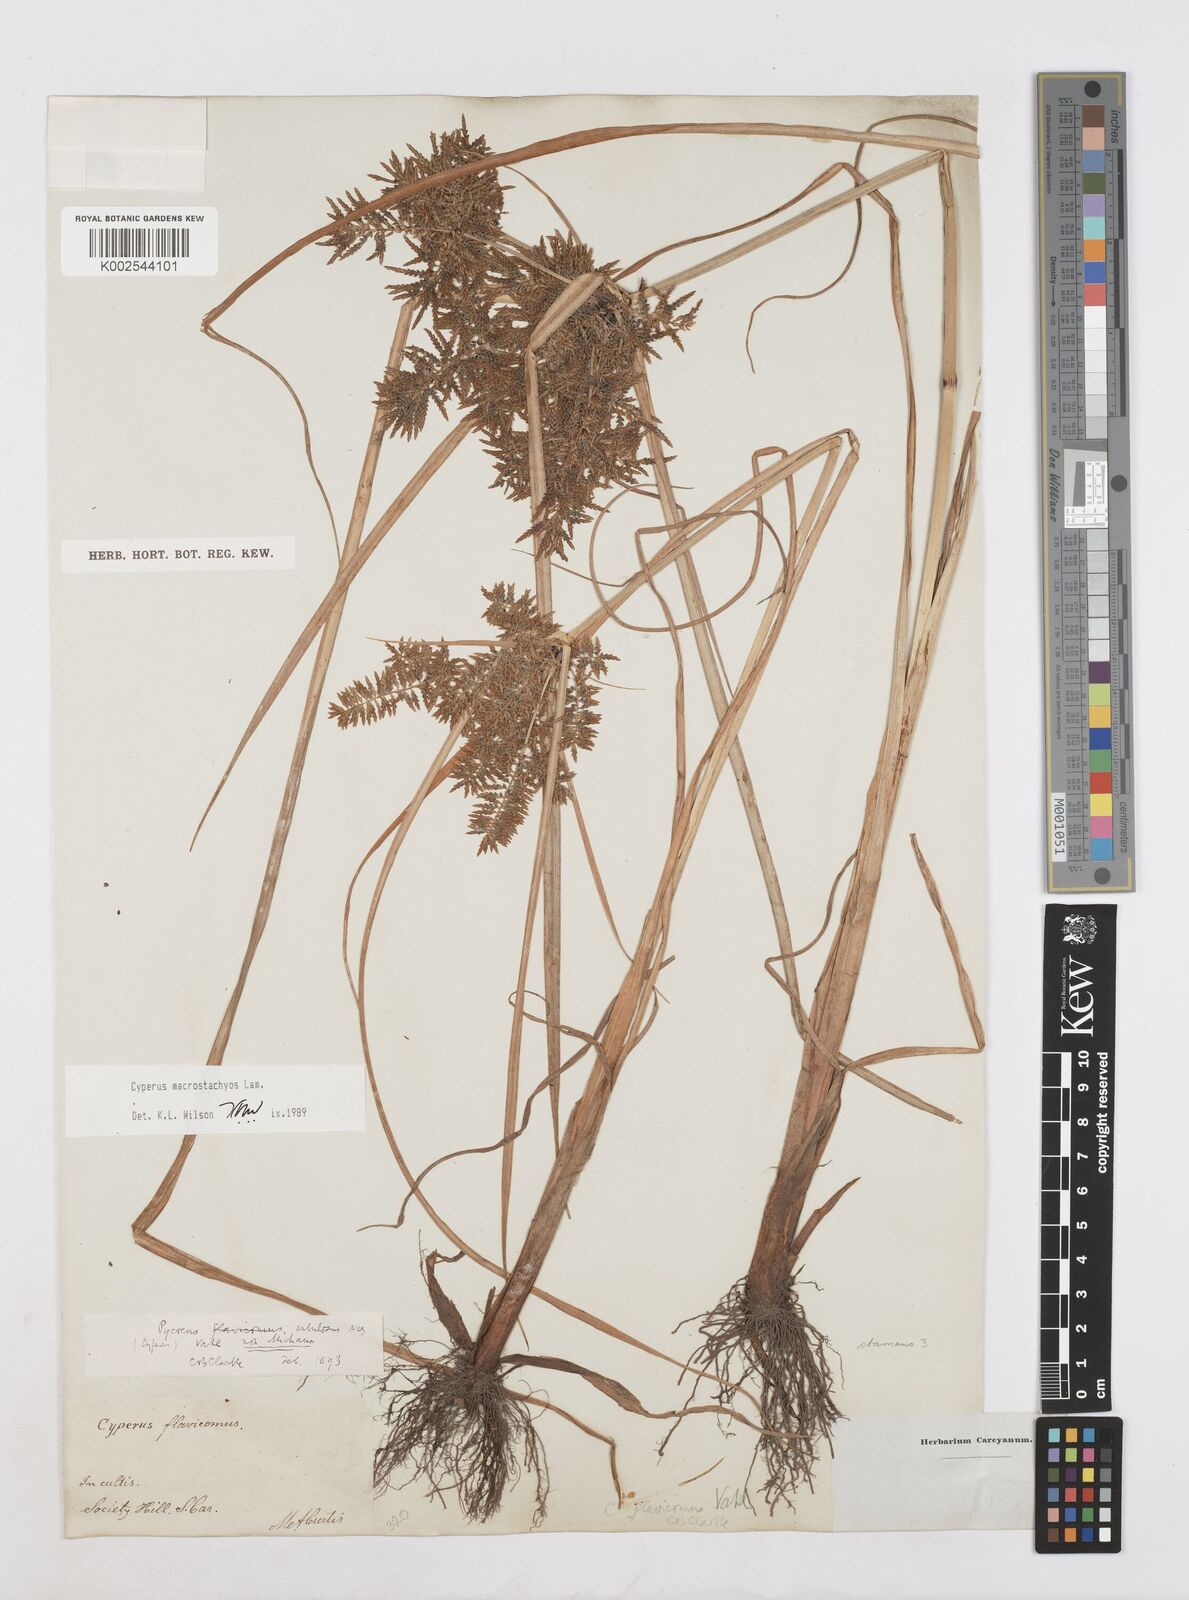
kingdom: Plantae
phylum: Tracheophyta
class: Liliopsida
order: Poales
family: Cyperaceae
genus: Cyperus
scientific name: Cyperus macrostachyos
